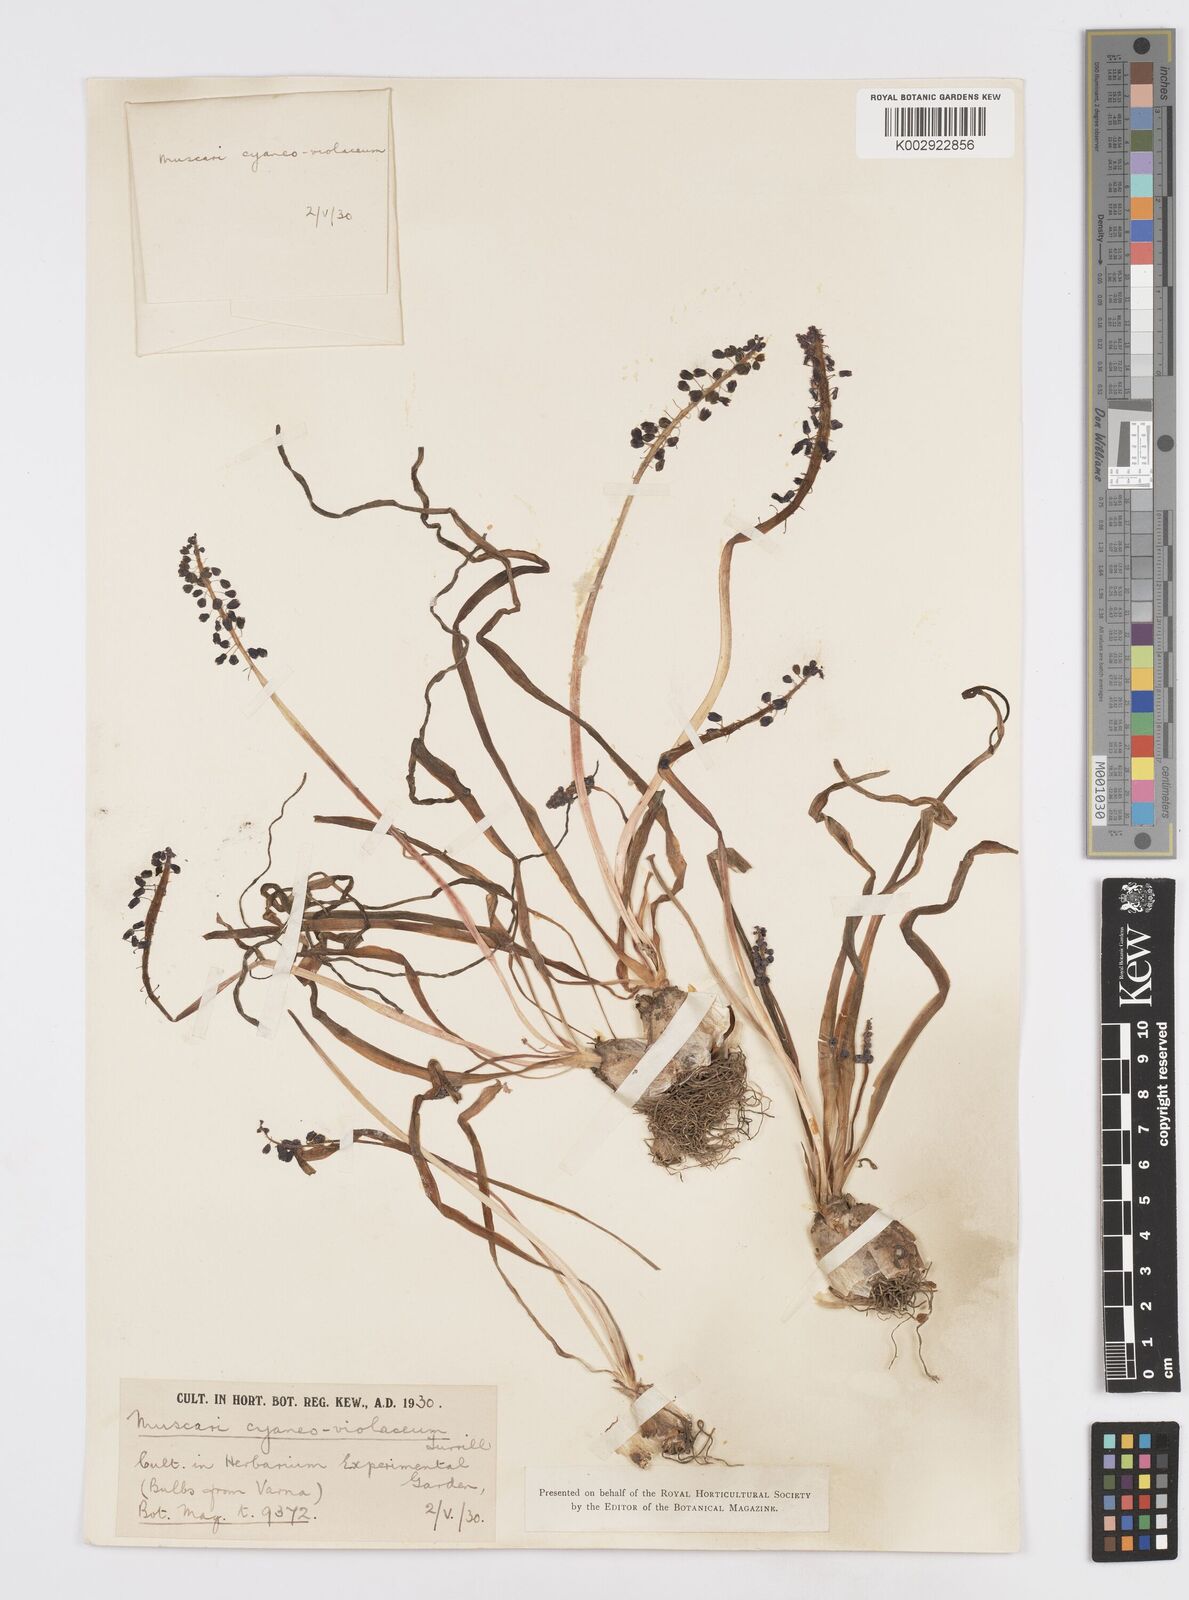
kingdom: Plantae
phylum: Tracheophyta
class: Liliopsida
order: Asparagales
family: Asparagaceae
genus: Muscari
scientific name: Muscari armeniacum
